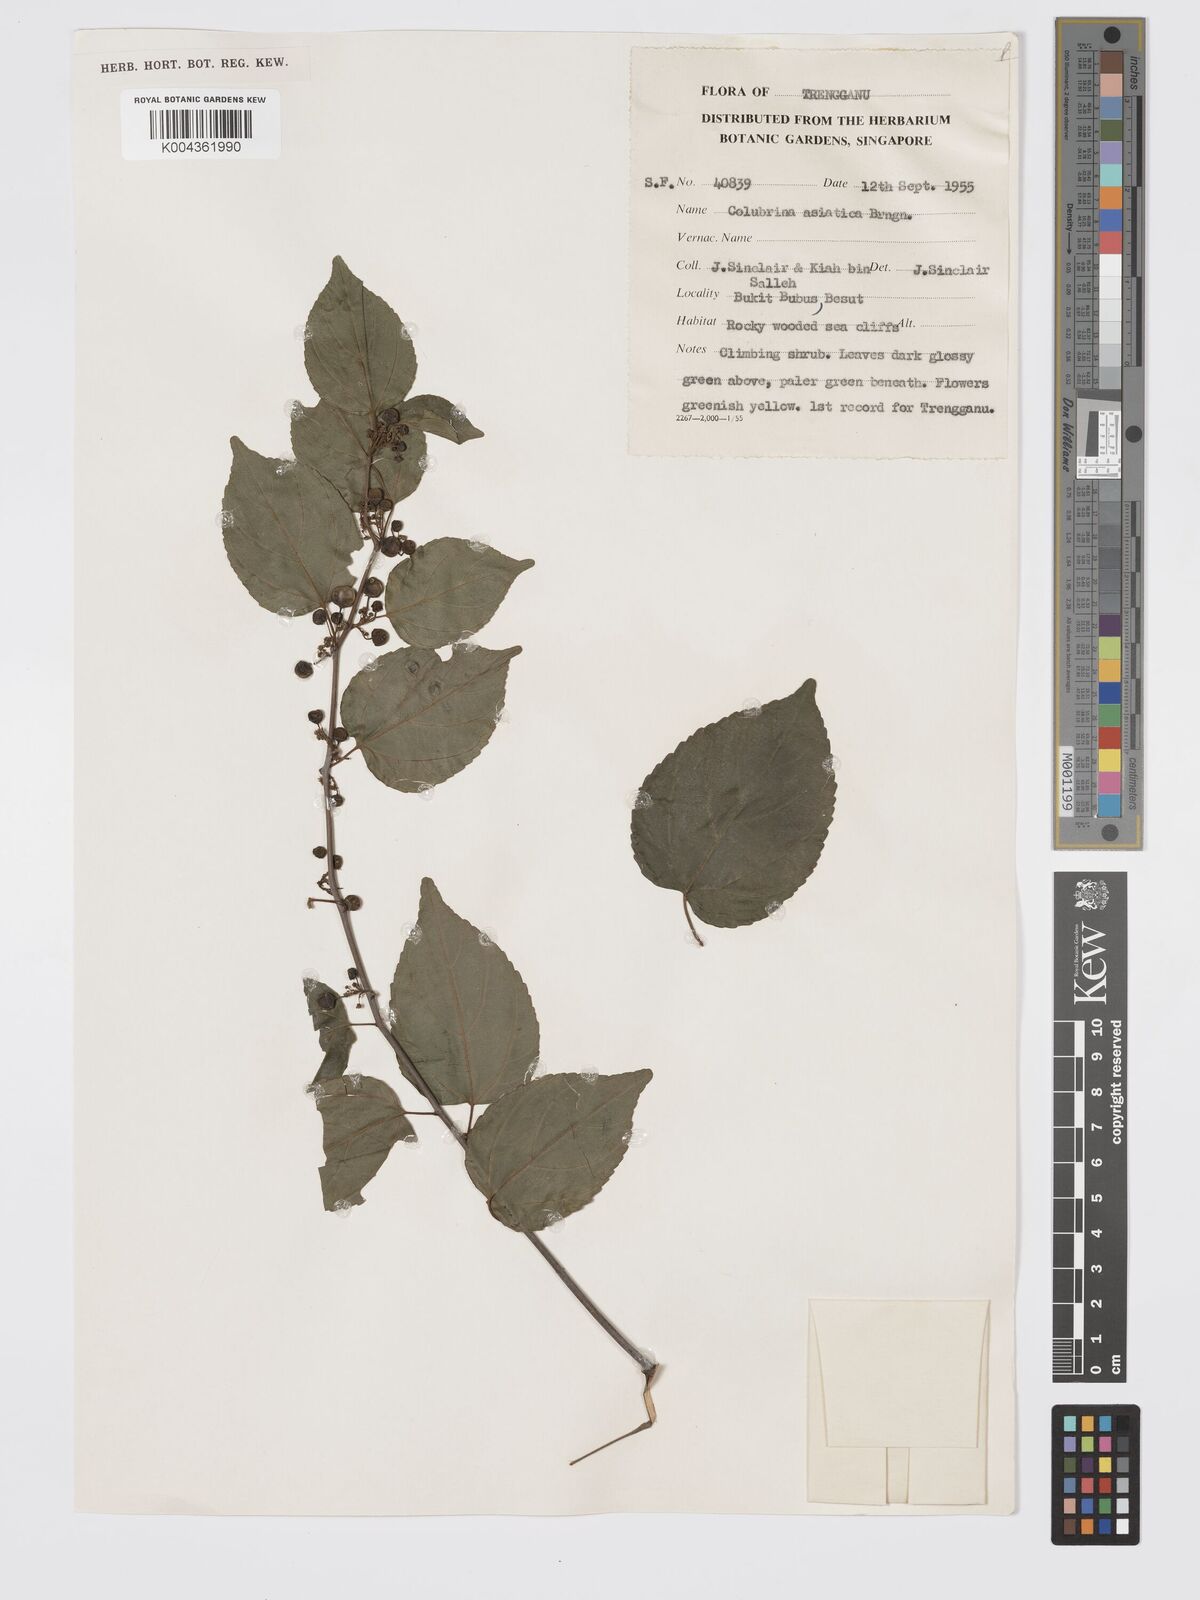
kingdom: Plantae
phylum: Tracheophyta
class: Magnoliopsida
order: Rosales
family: Rhamnaceae
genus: Colubrina
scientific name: Colubrina asiatica
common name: Asian nakedwood
